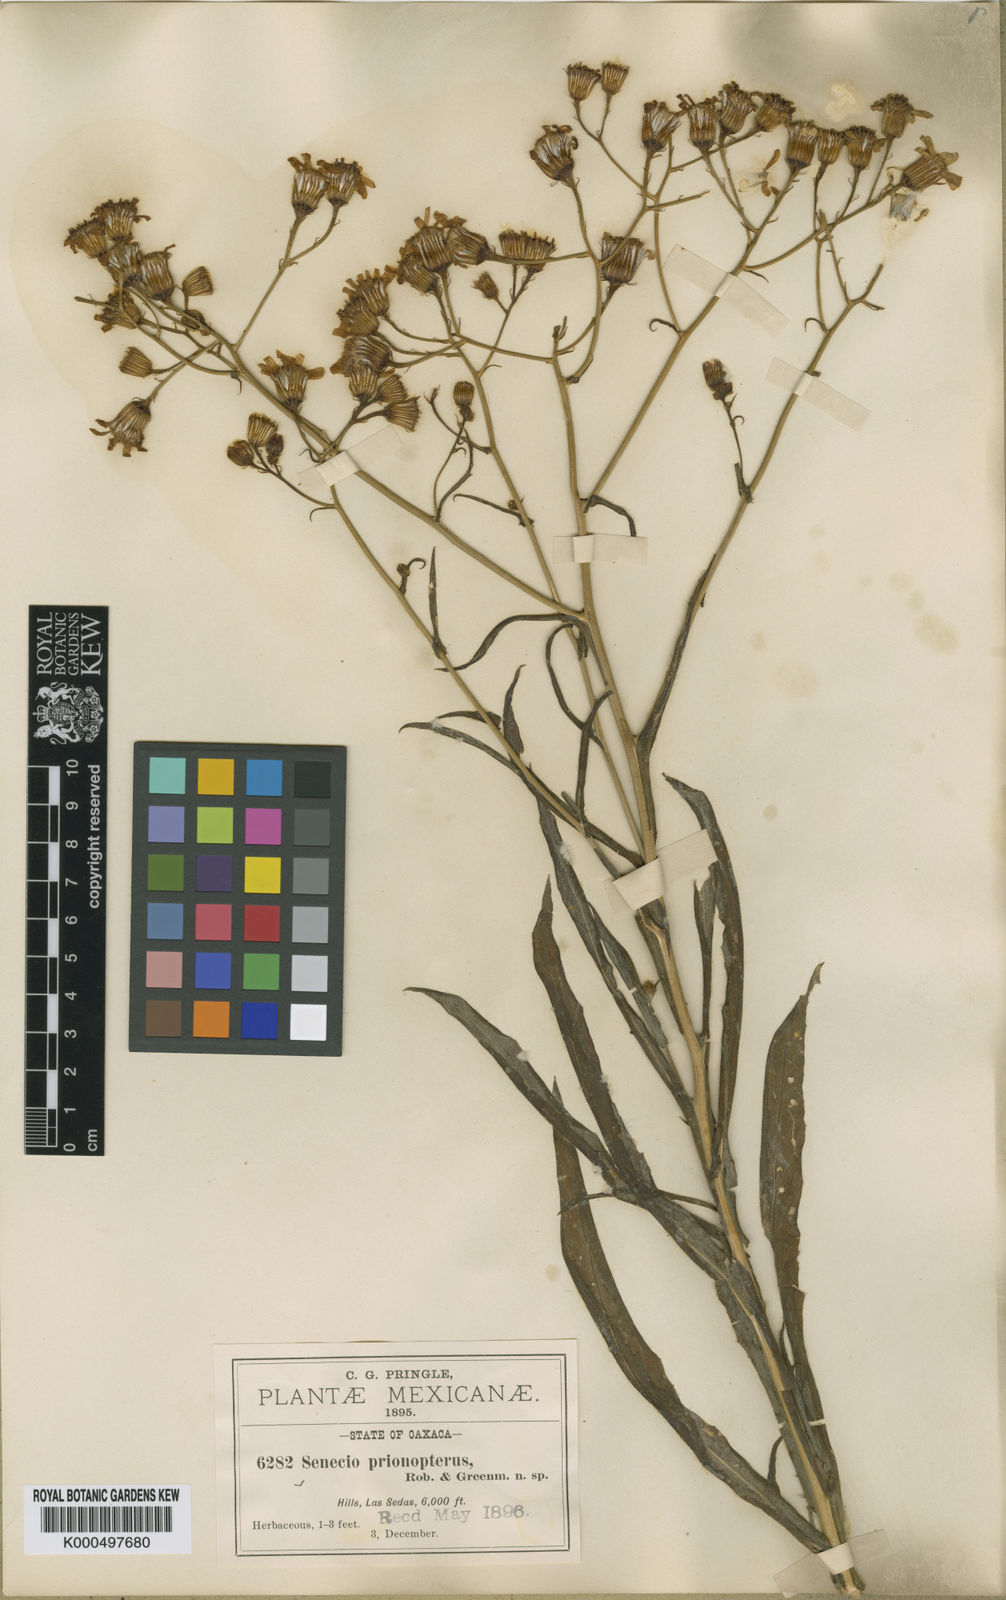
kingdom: Plantae
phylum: Tracheophyta
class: Magnoliopsida
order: Asterales
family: Asteraceae
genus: Senecio
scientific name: Senecio prionopterus
